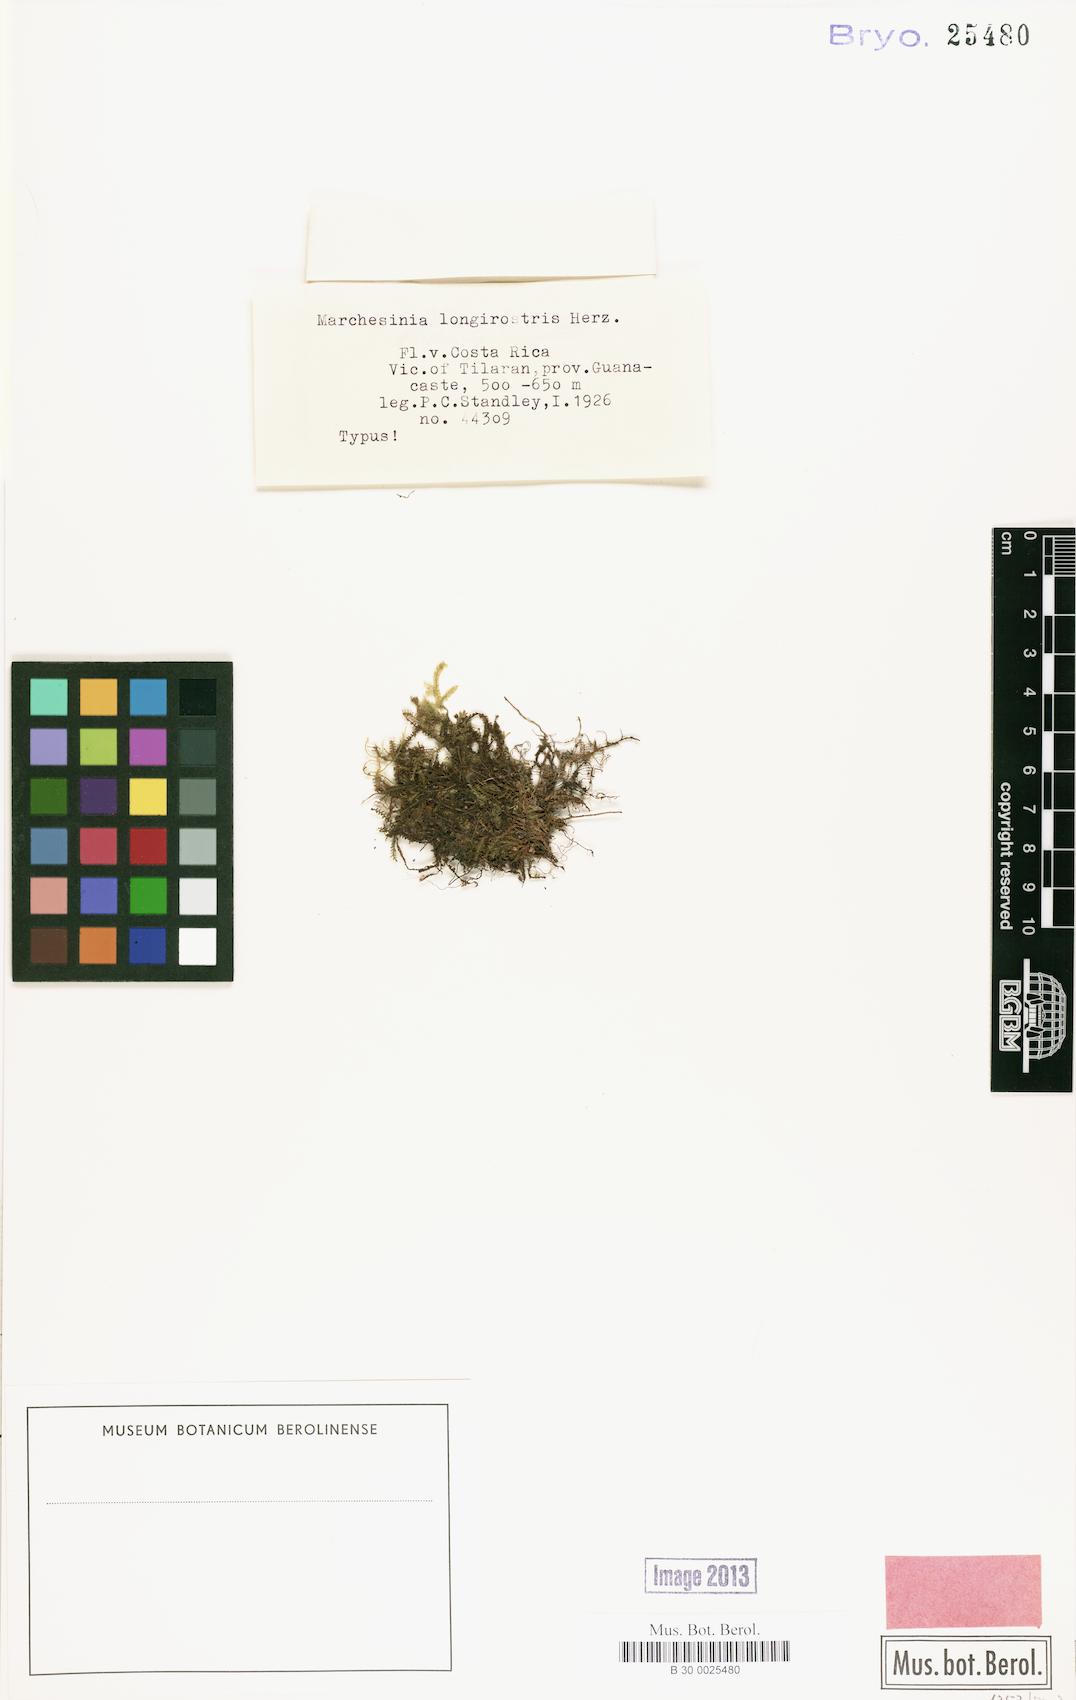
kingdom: Plantae
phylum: Marchantiophyta
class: Jungermanniopsida
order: Porellales
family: Lejeuneaceae
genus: Marchesinia
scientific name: Marchesinia bongardiana
